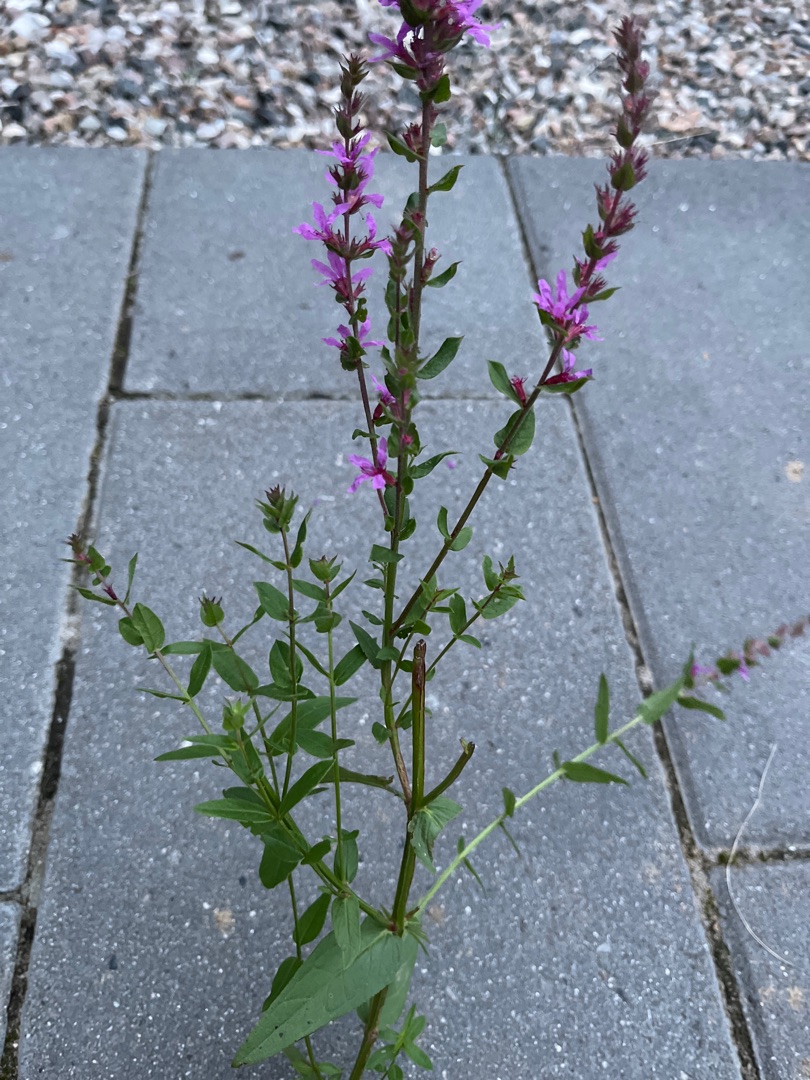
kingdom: Plantae
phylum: Tracheophyta
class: Magnoliopsida
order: Myrtales
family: Lythraceae
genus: Lythrum
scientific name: Lythrum salicaria
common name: Kattehale
